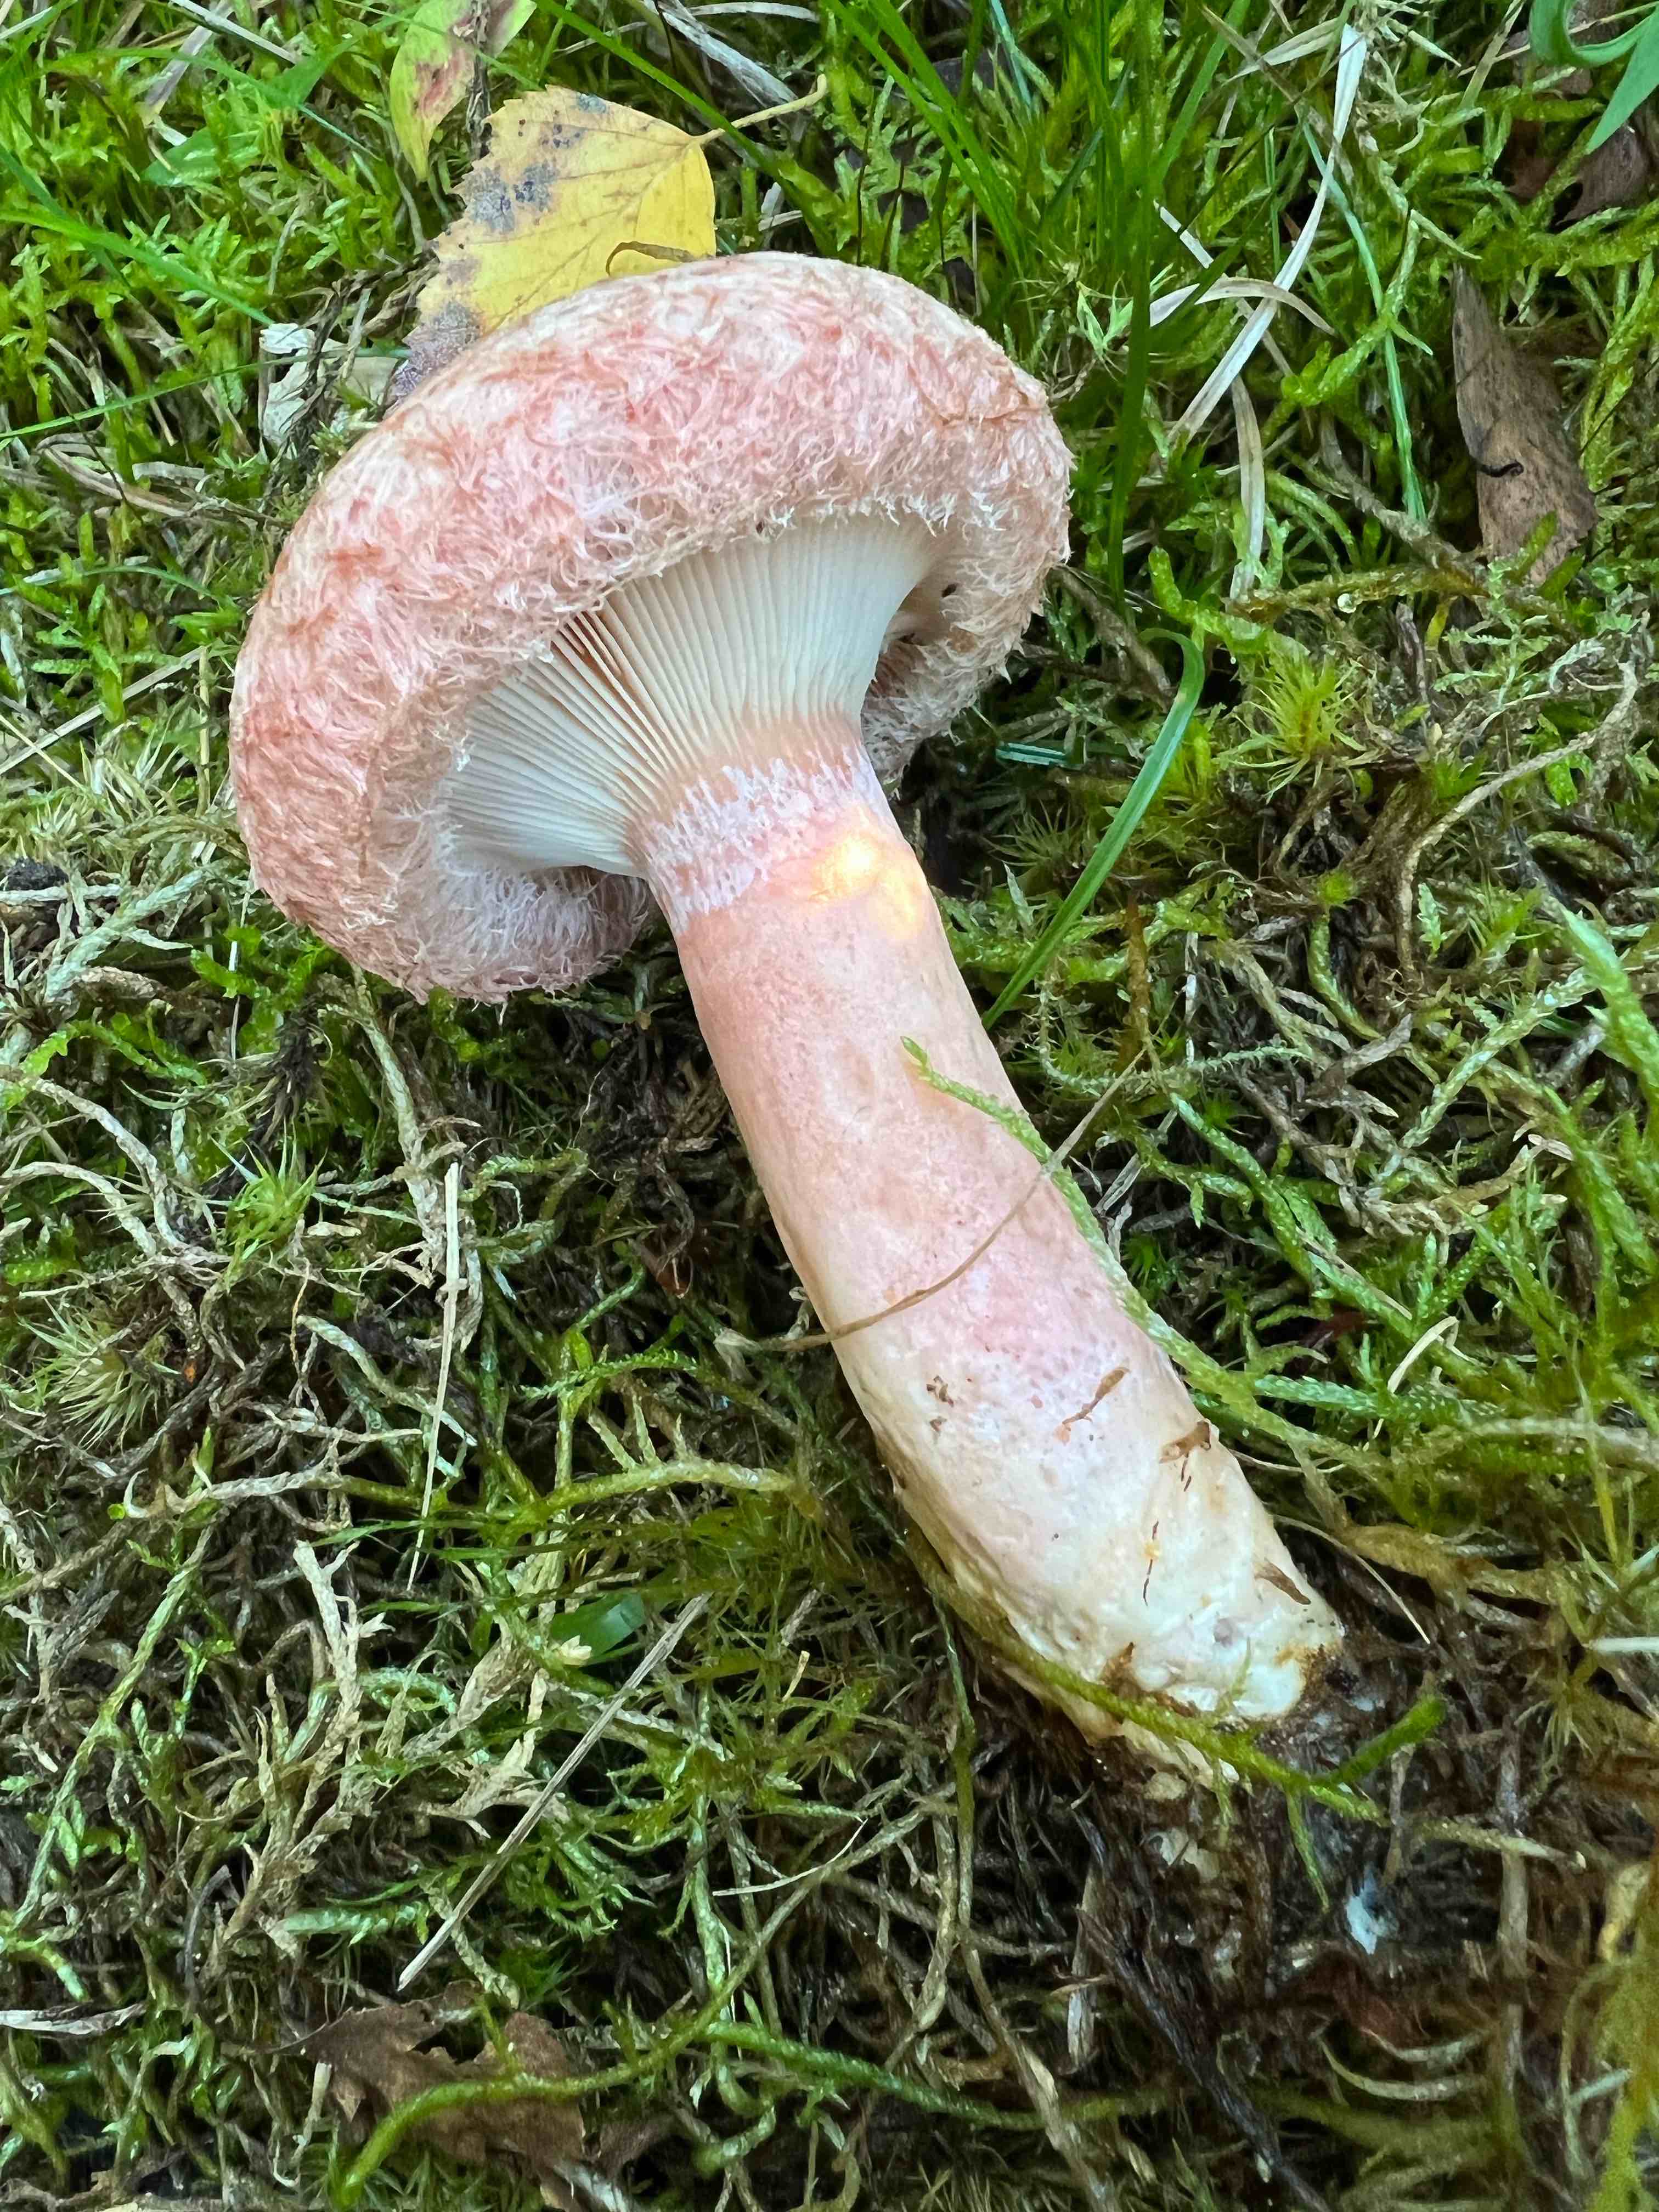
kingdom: Fungi
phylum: Basidiomycota
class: Agaricomycetes
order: Russulales
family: Russulaceae
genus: Lactarius
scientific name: Lactarius torminosus
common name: skægget mælkehat
